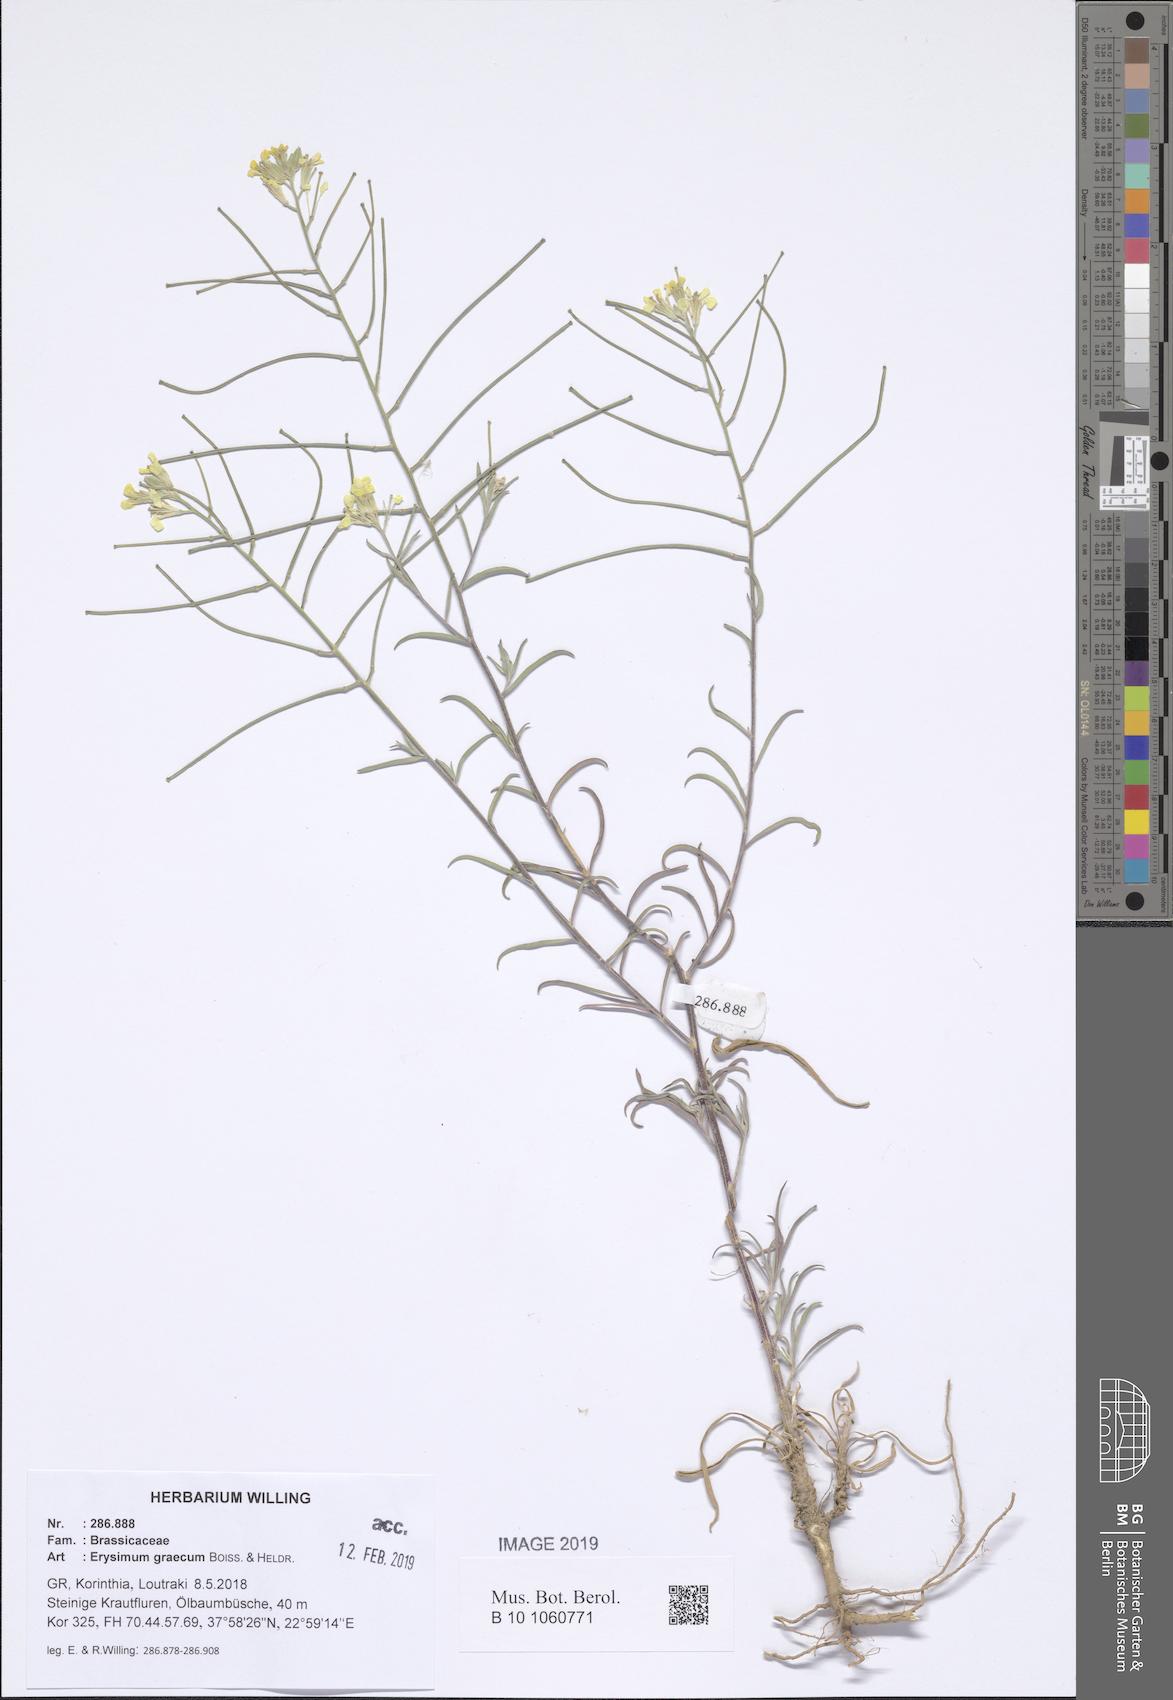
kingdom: Plantae
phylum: Tracheophyta
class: Magnoliopsida
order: Brassicales
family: Brassicaceae
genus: Erysimum
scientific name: Erysimum graecum
